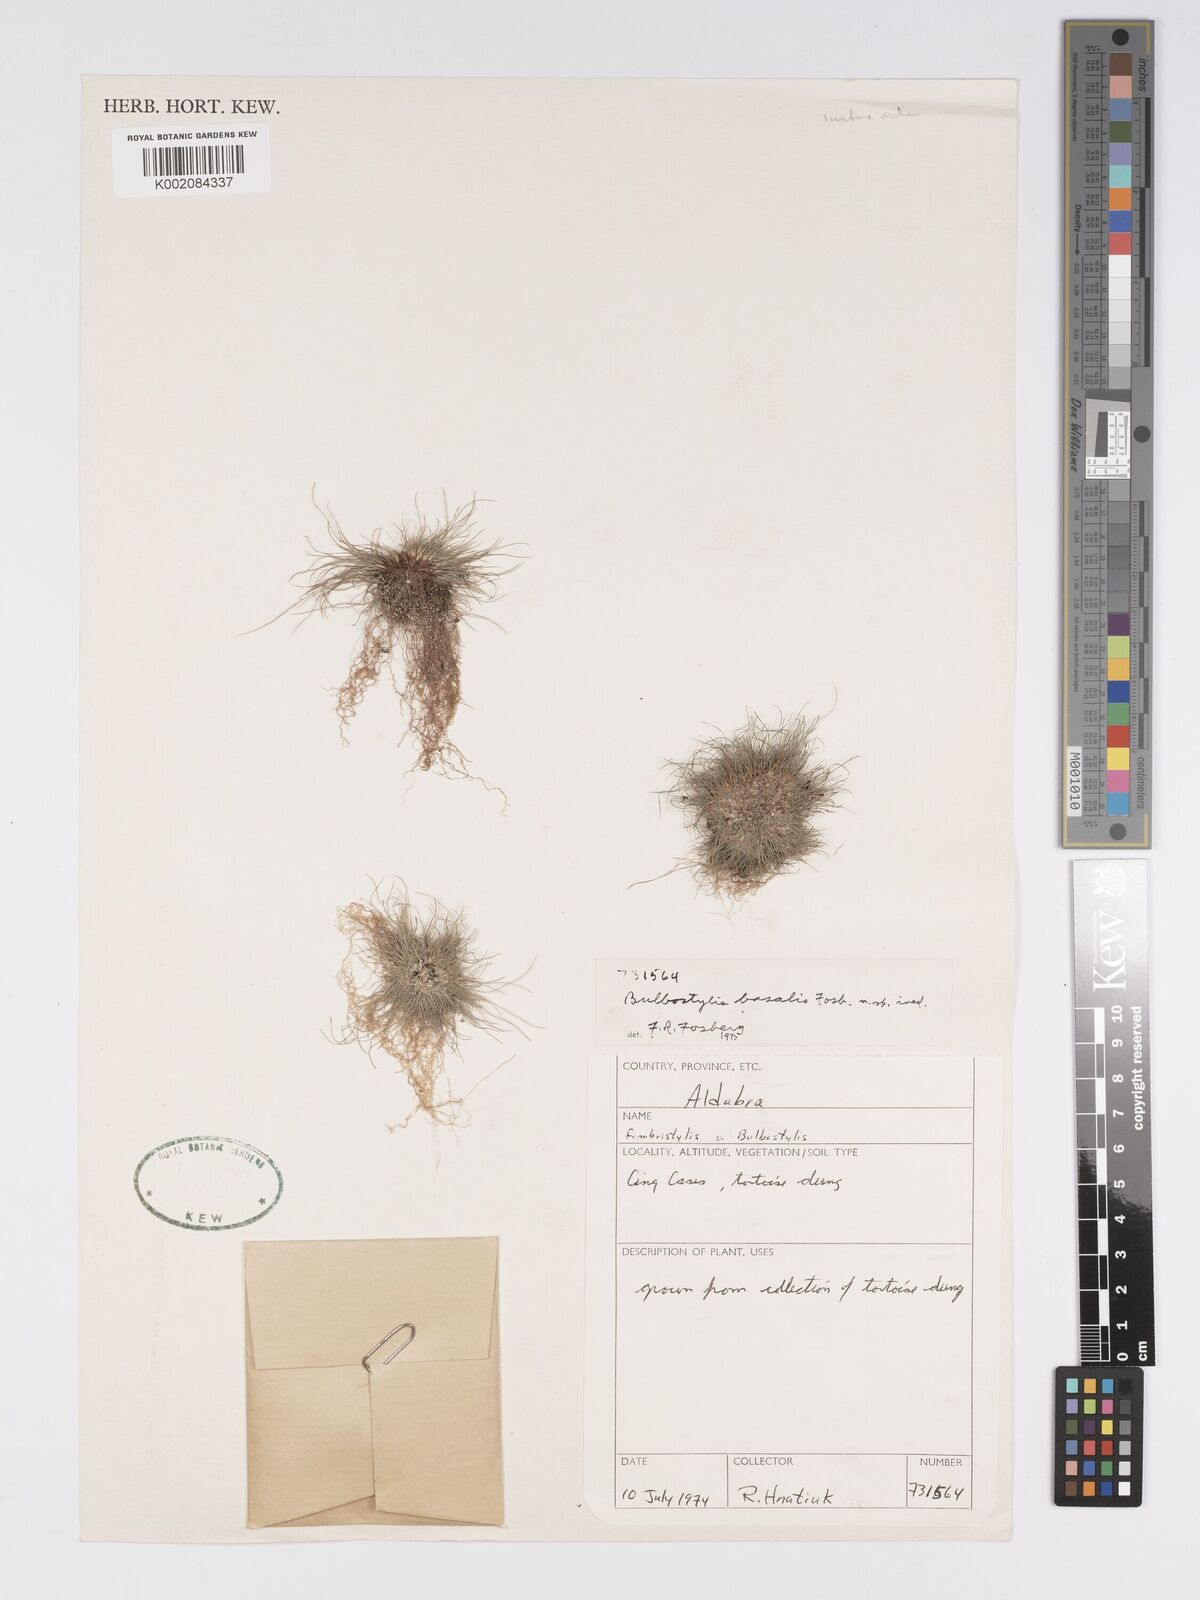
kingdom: Plantae
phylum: Tracheophyta
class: Liliopsida
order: Poales
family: Cyperaceae
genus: Bulbostylis
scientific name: Bulbostylis basalis
